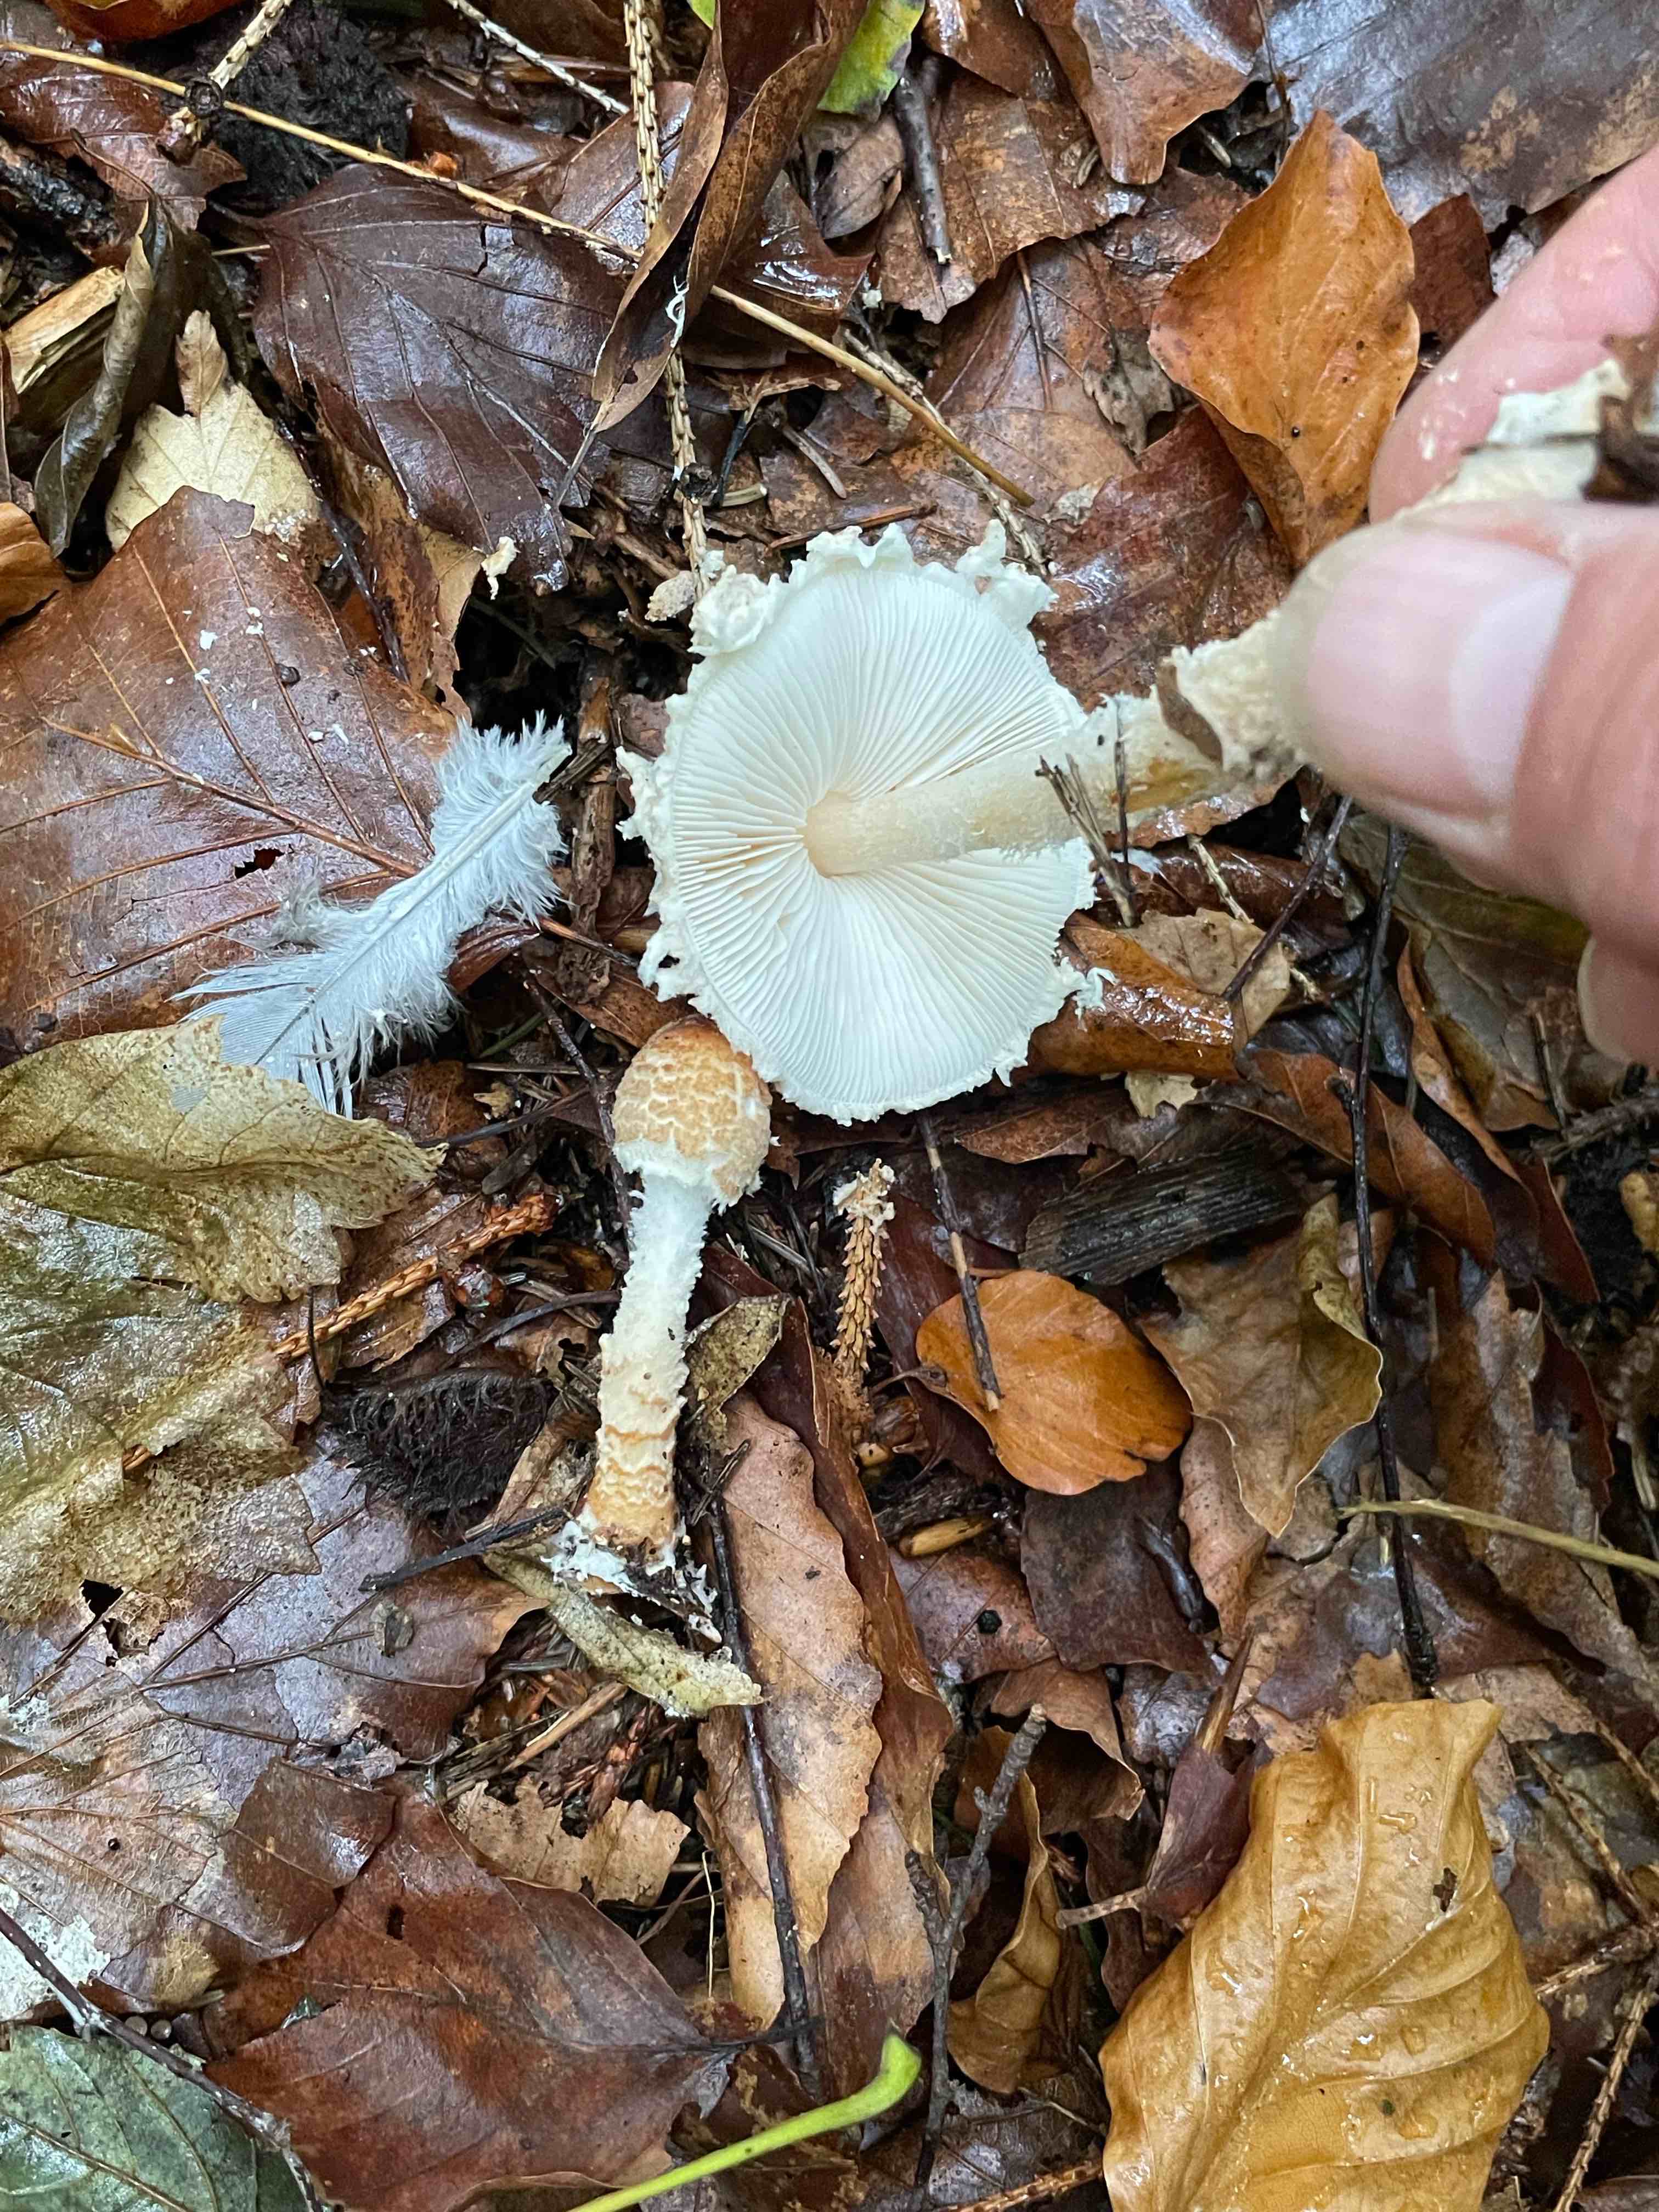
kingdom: Fungi
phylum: Basidiomycota
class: Agaricomycetes
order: Agaricales
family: Tricholomataceae
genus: Cystoderma
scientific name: Cystoderma amianthinum
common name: okkergul grynhat
